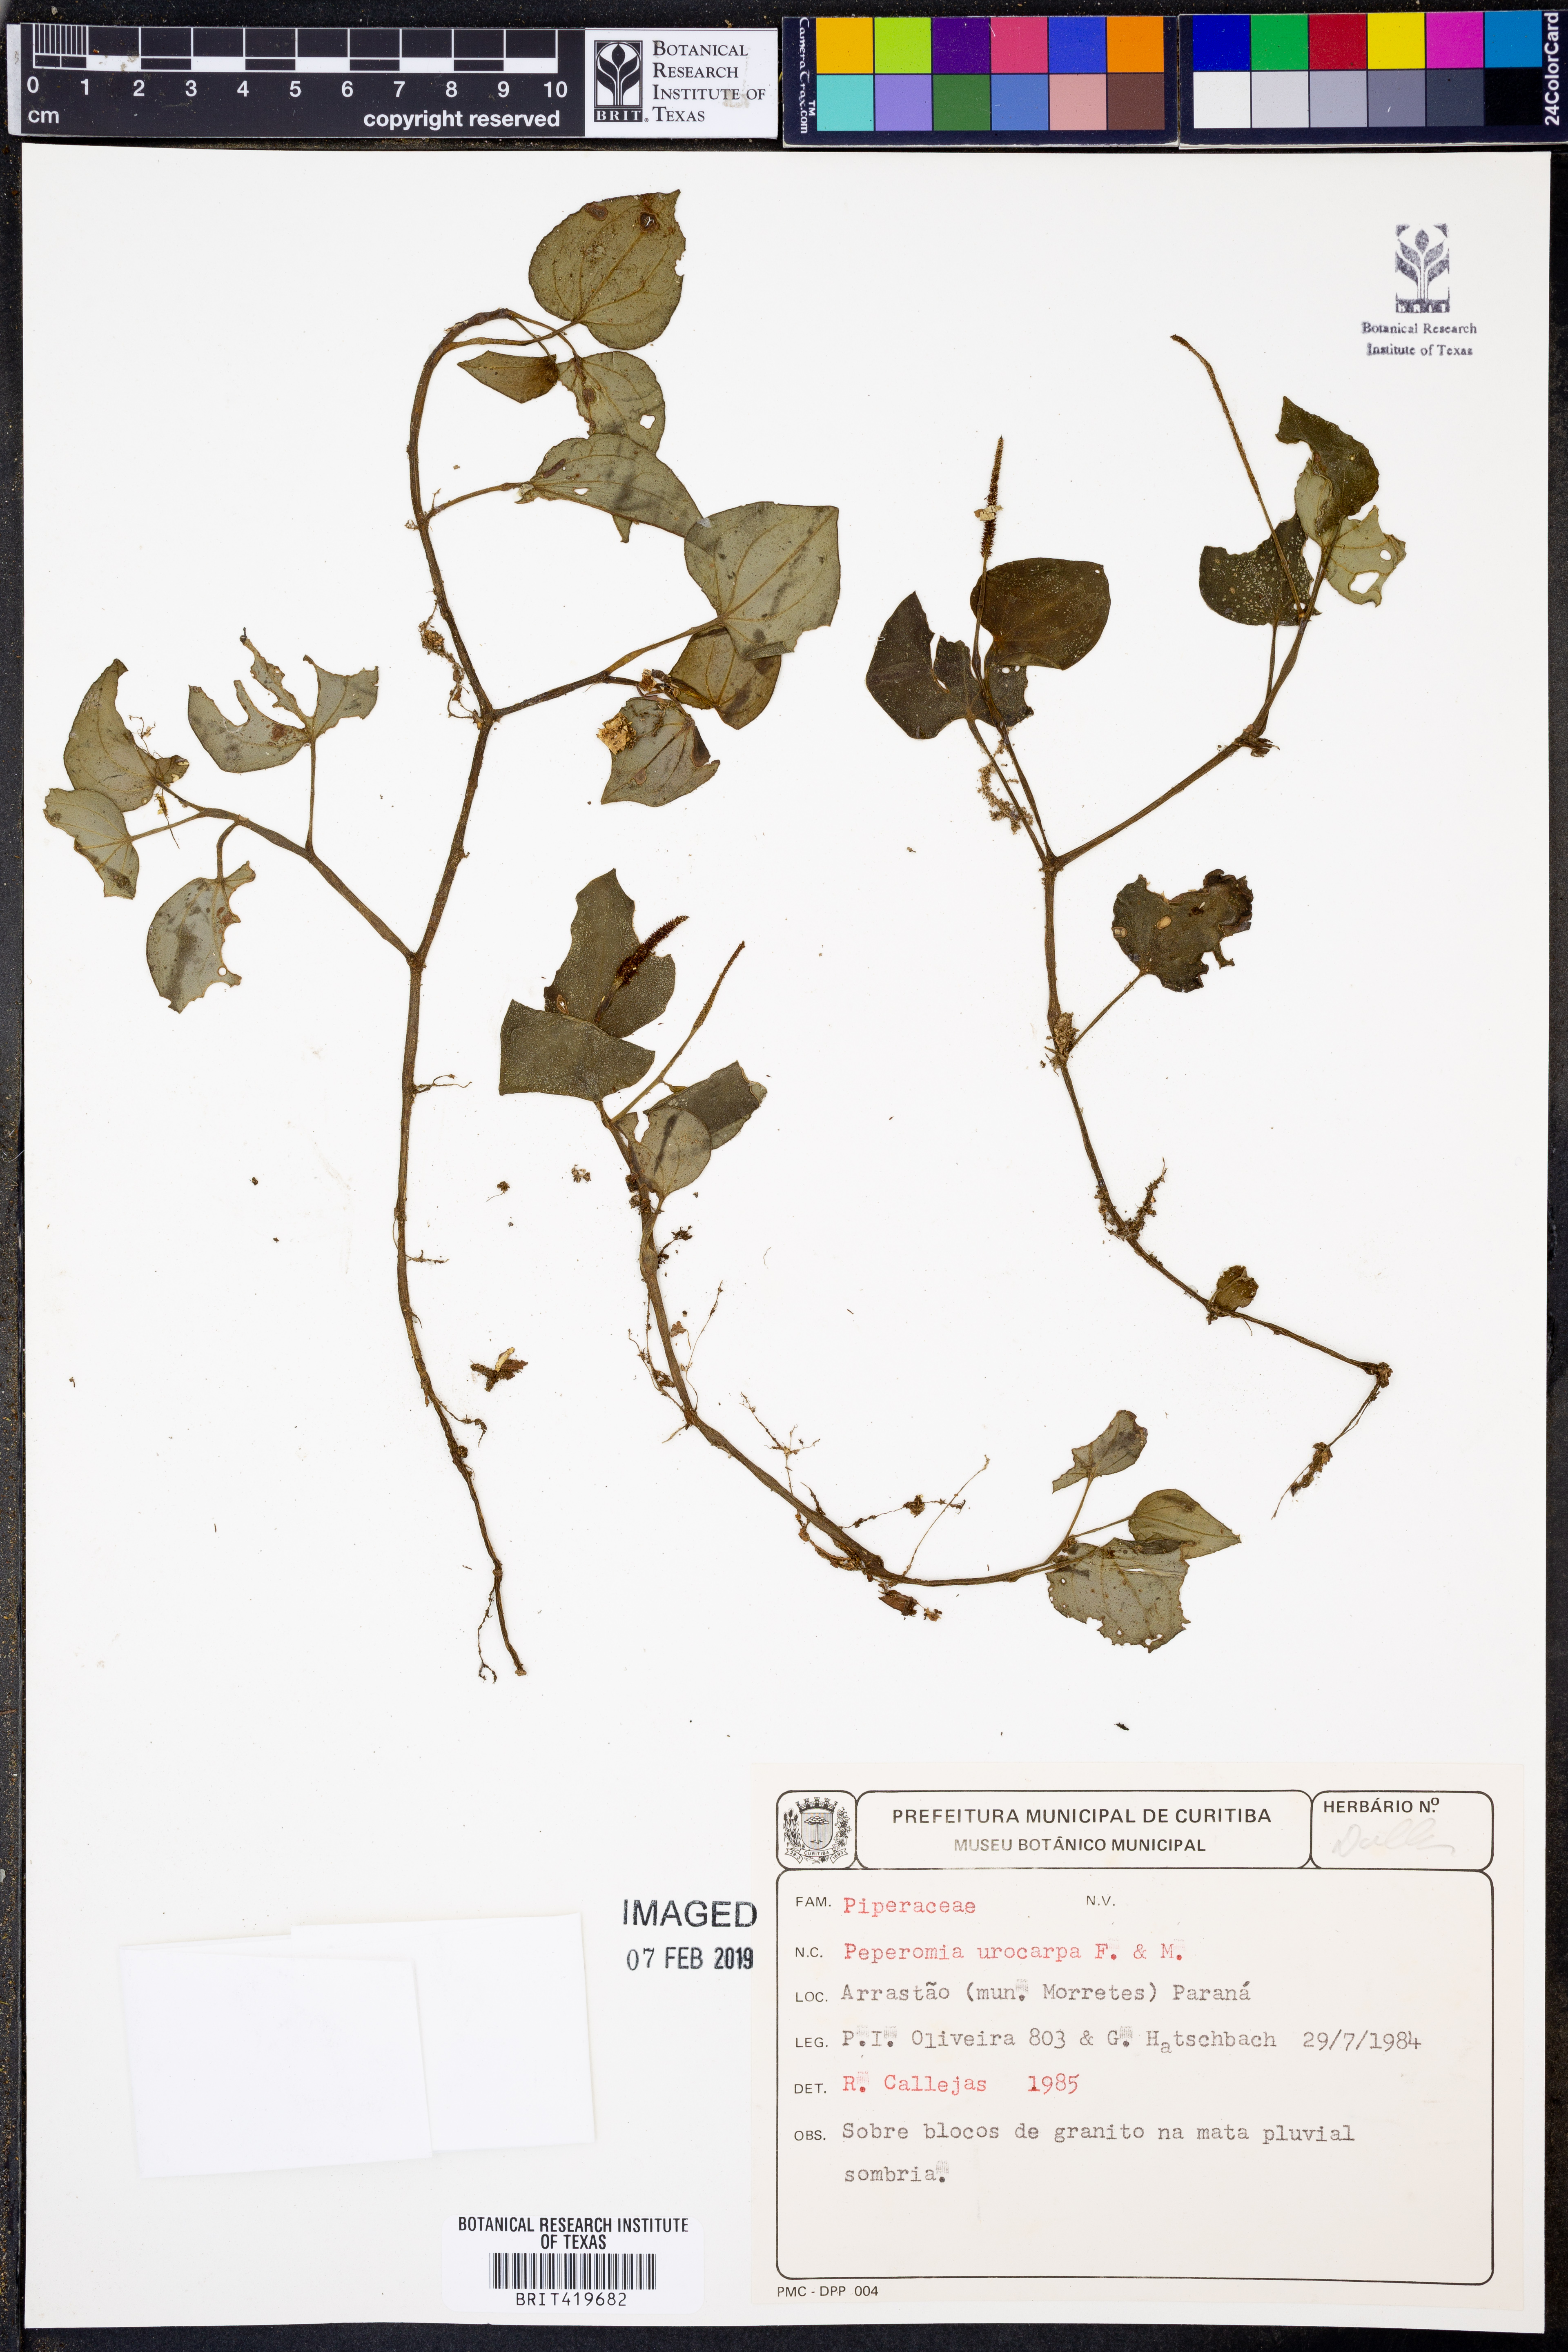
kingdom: Plantae
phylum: Tracheophyta
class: Magnoliopsida
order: Piperales
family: Piperaceae
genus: Peperomia
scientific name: Peperomia urocarpa
